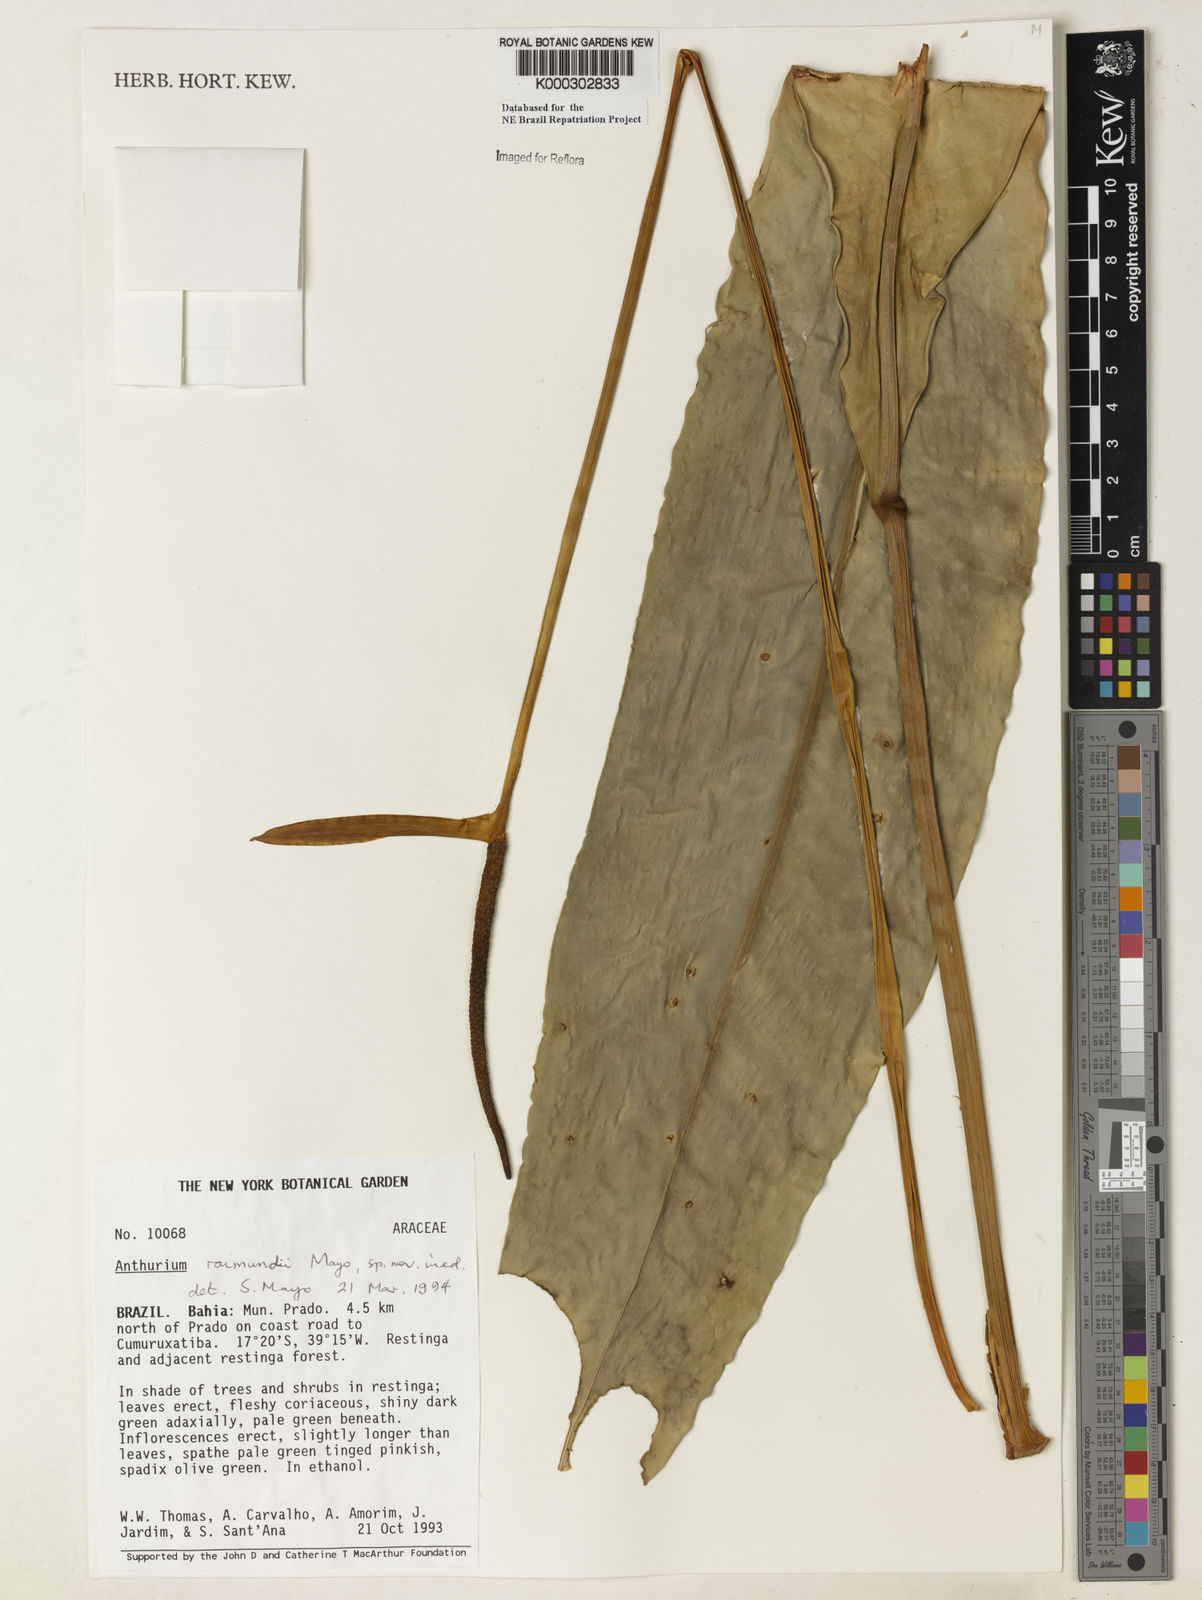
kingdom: Plantae
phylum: Tracheophyta
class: Liliopsida
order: Alismatales
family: Araceae
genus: Anthurium
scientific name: Anthurium raimundii
